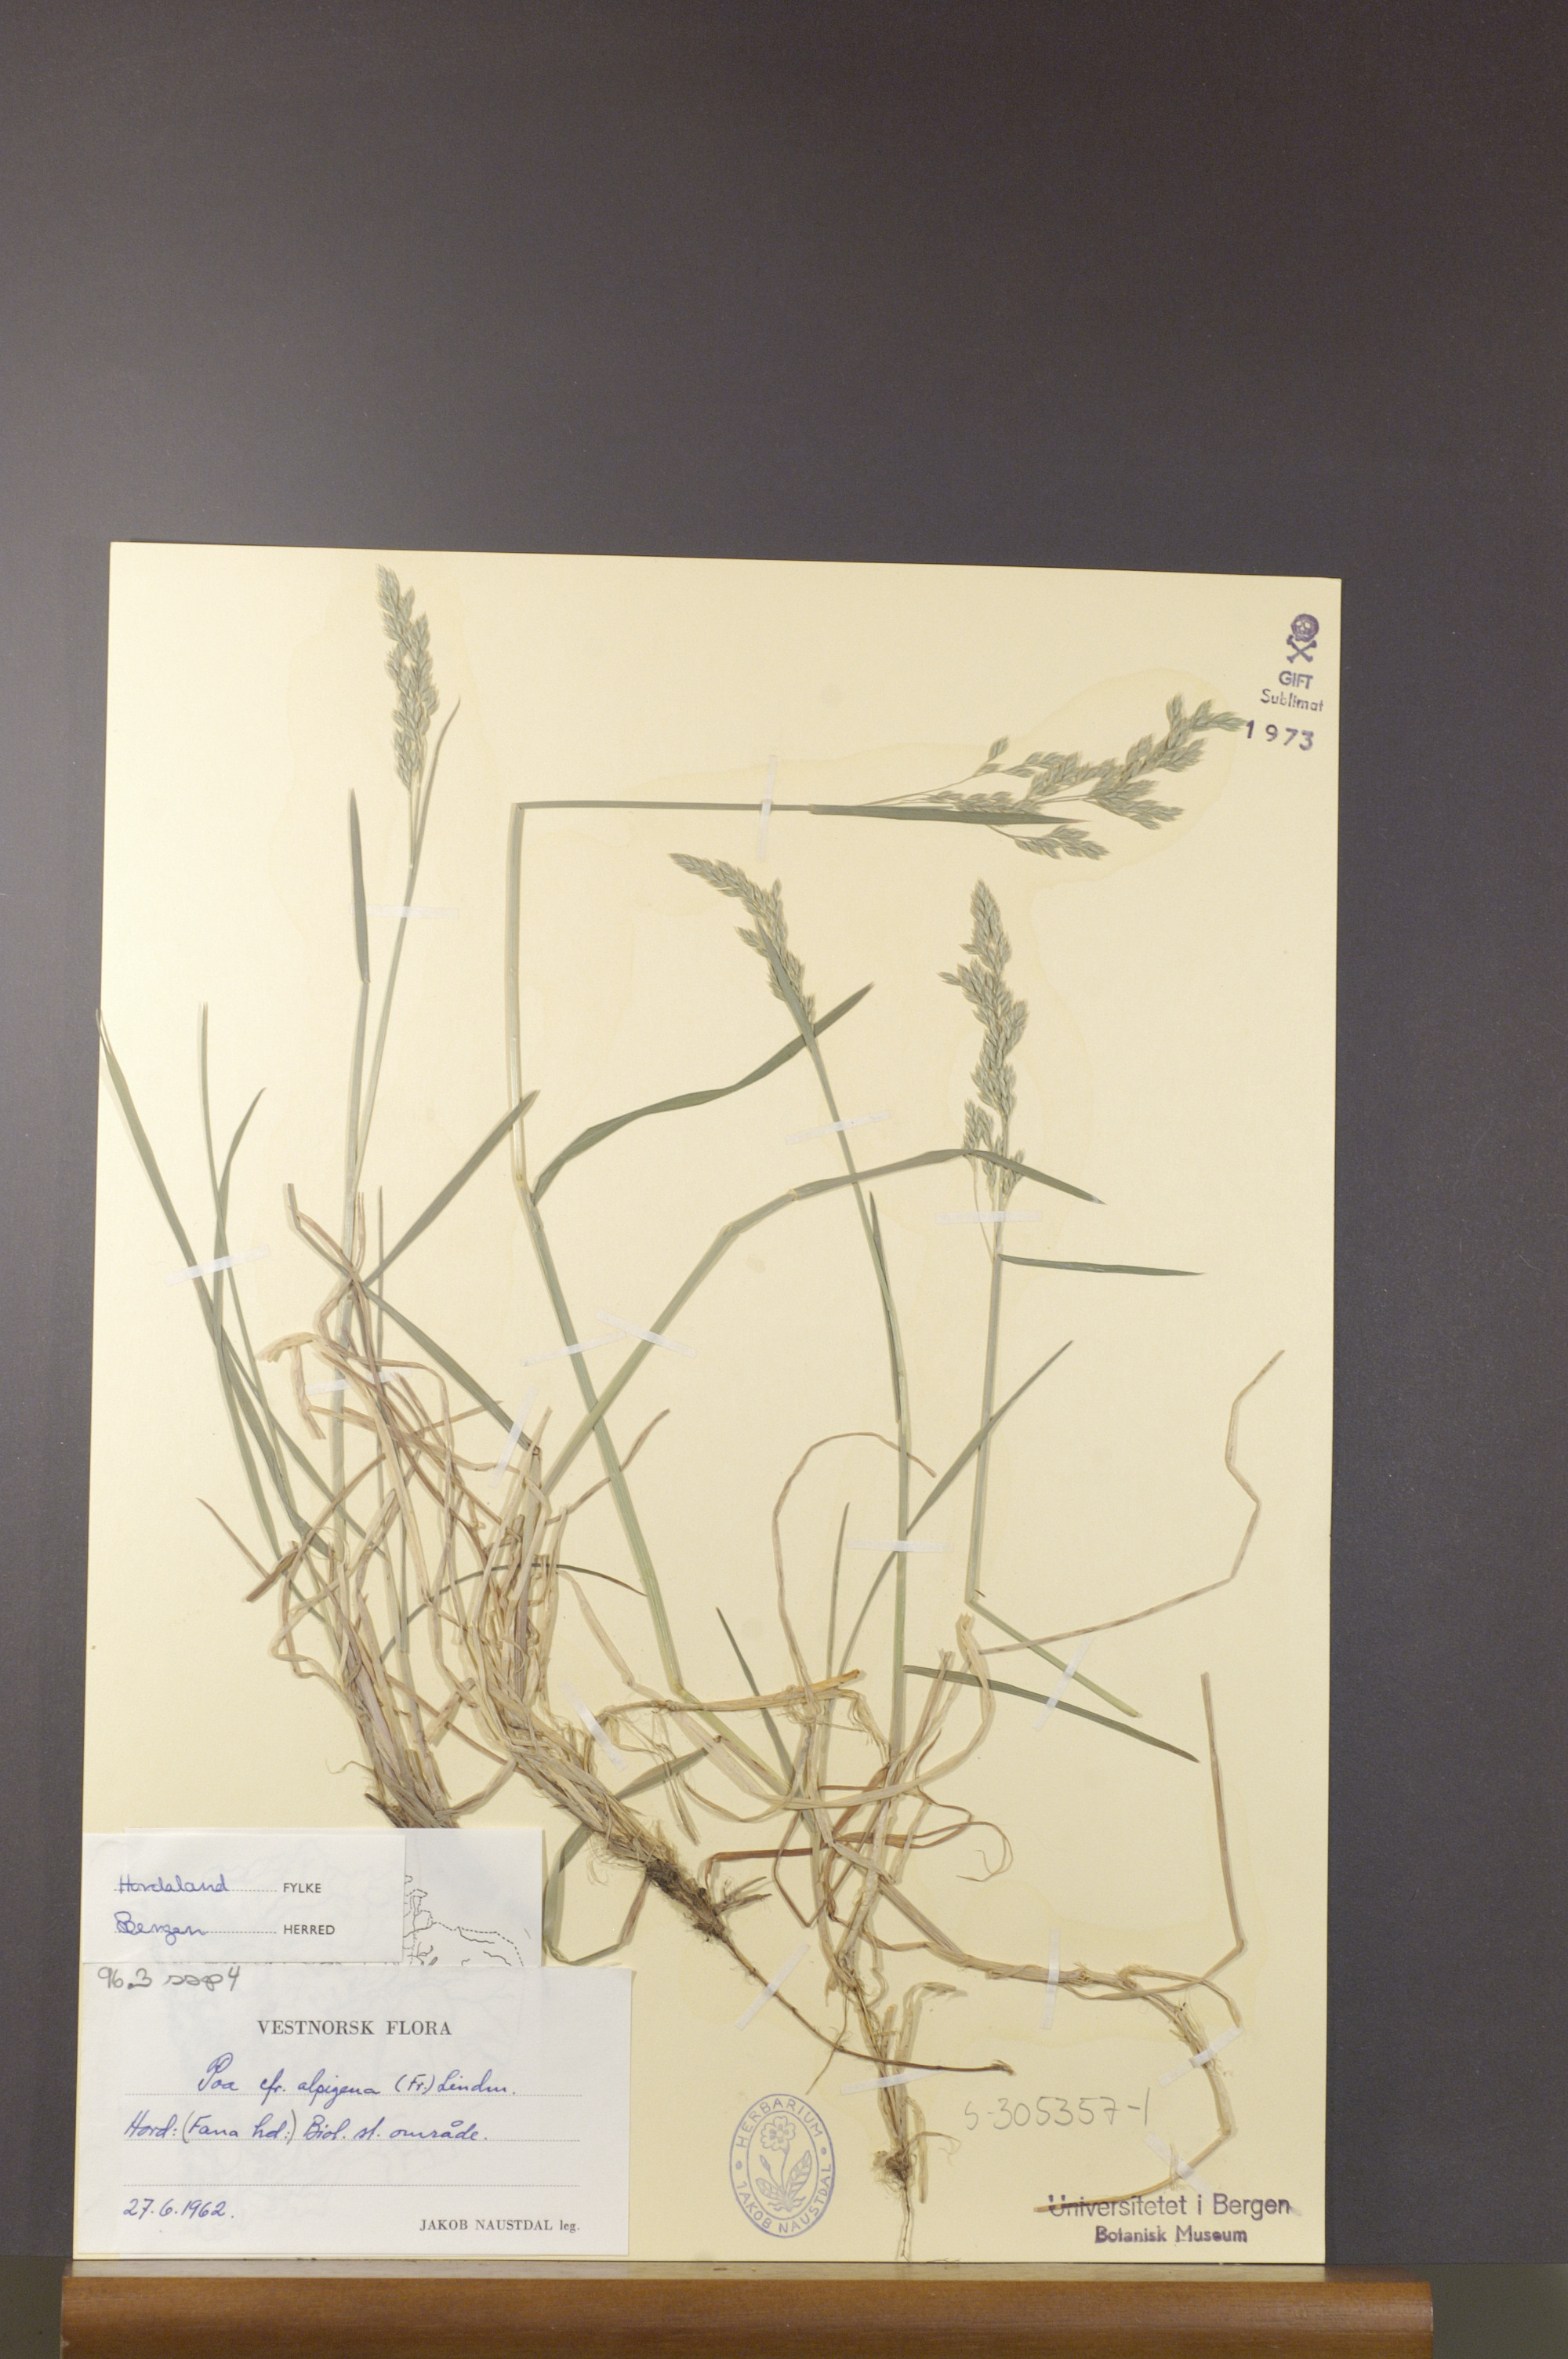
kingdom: Plantae
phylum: Tracheophyta
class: Liliopsida
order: Poales
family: Poaceae
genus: Poa
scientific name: Poa alpigena
